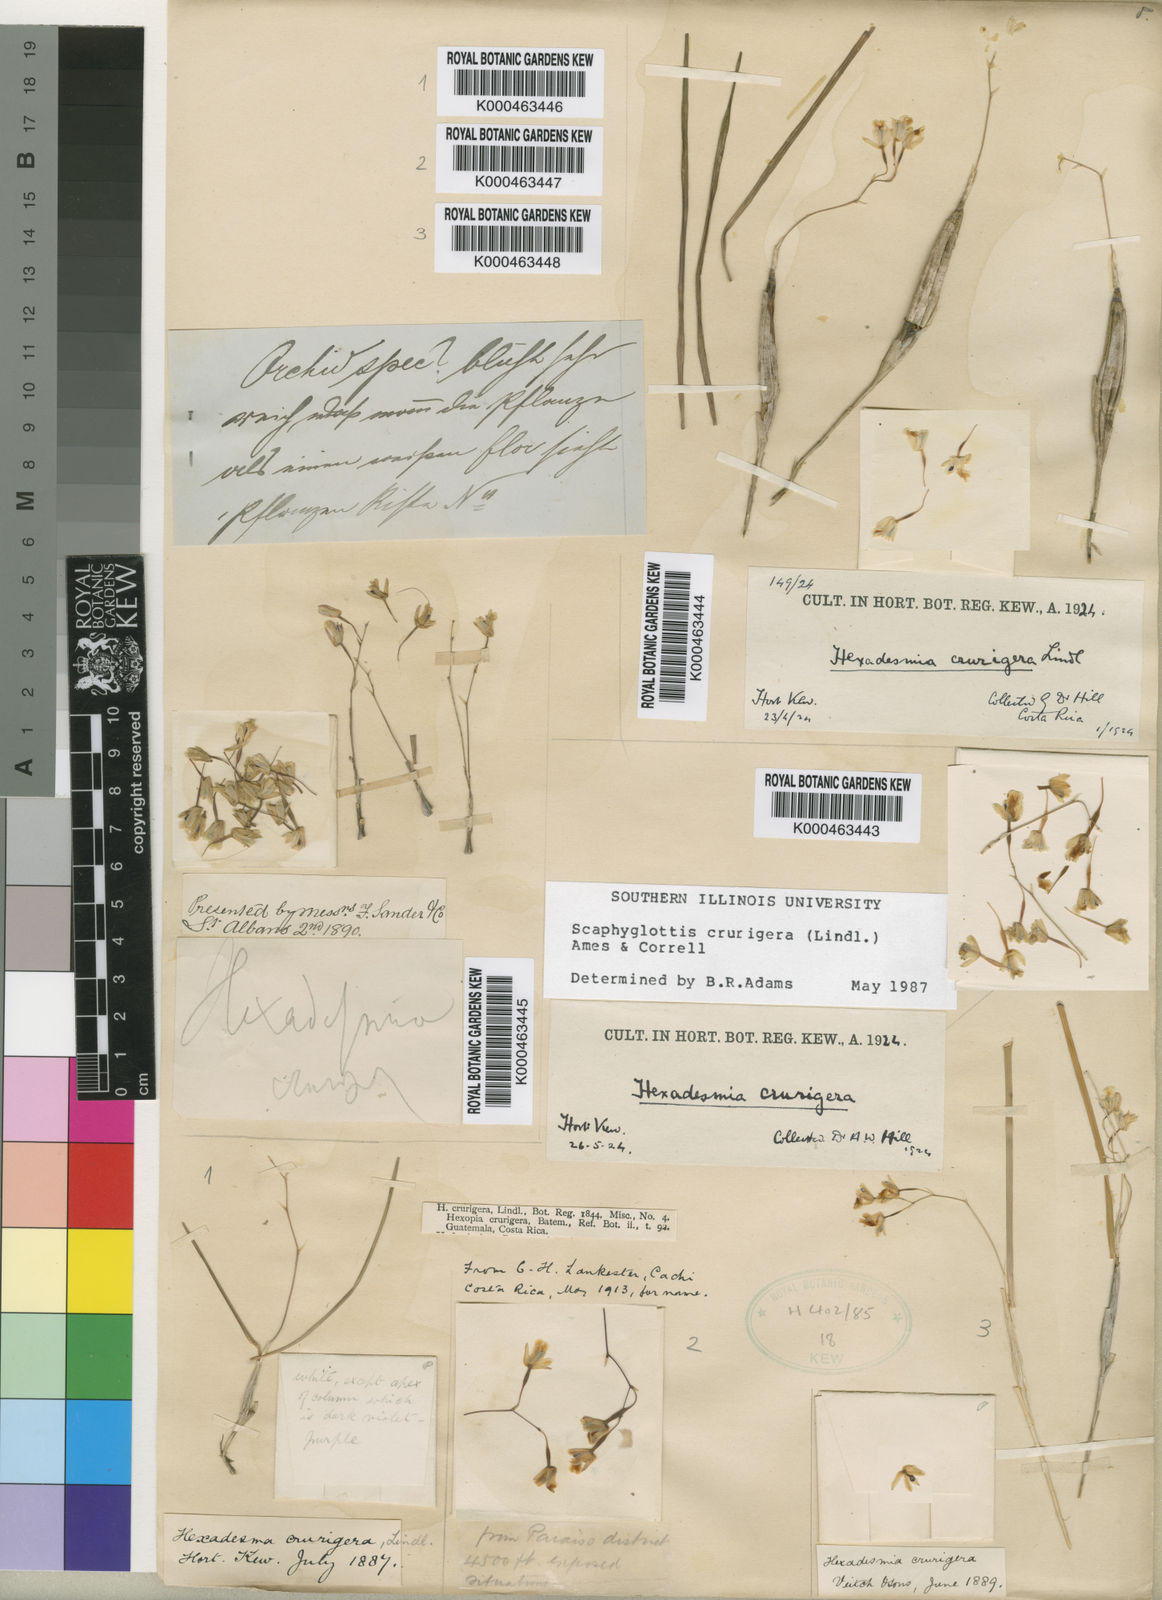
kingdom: Plantae
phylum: Tracheophyta
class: Liliopsida
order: Asparagales
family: Orchidaceae
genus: Scaphyglottis
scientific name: Scaphyglottis crurigera
